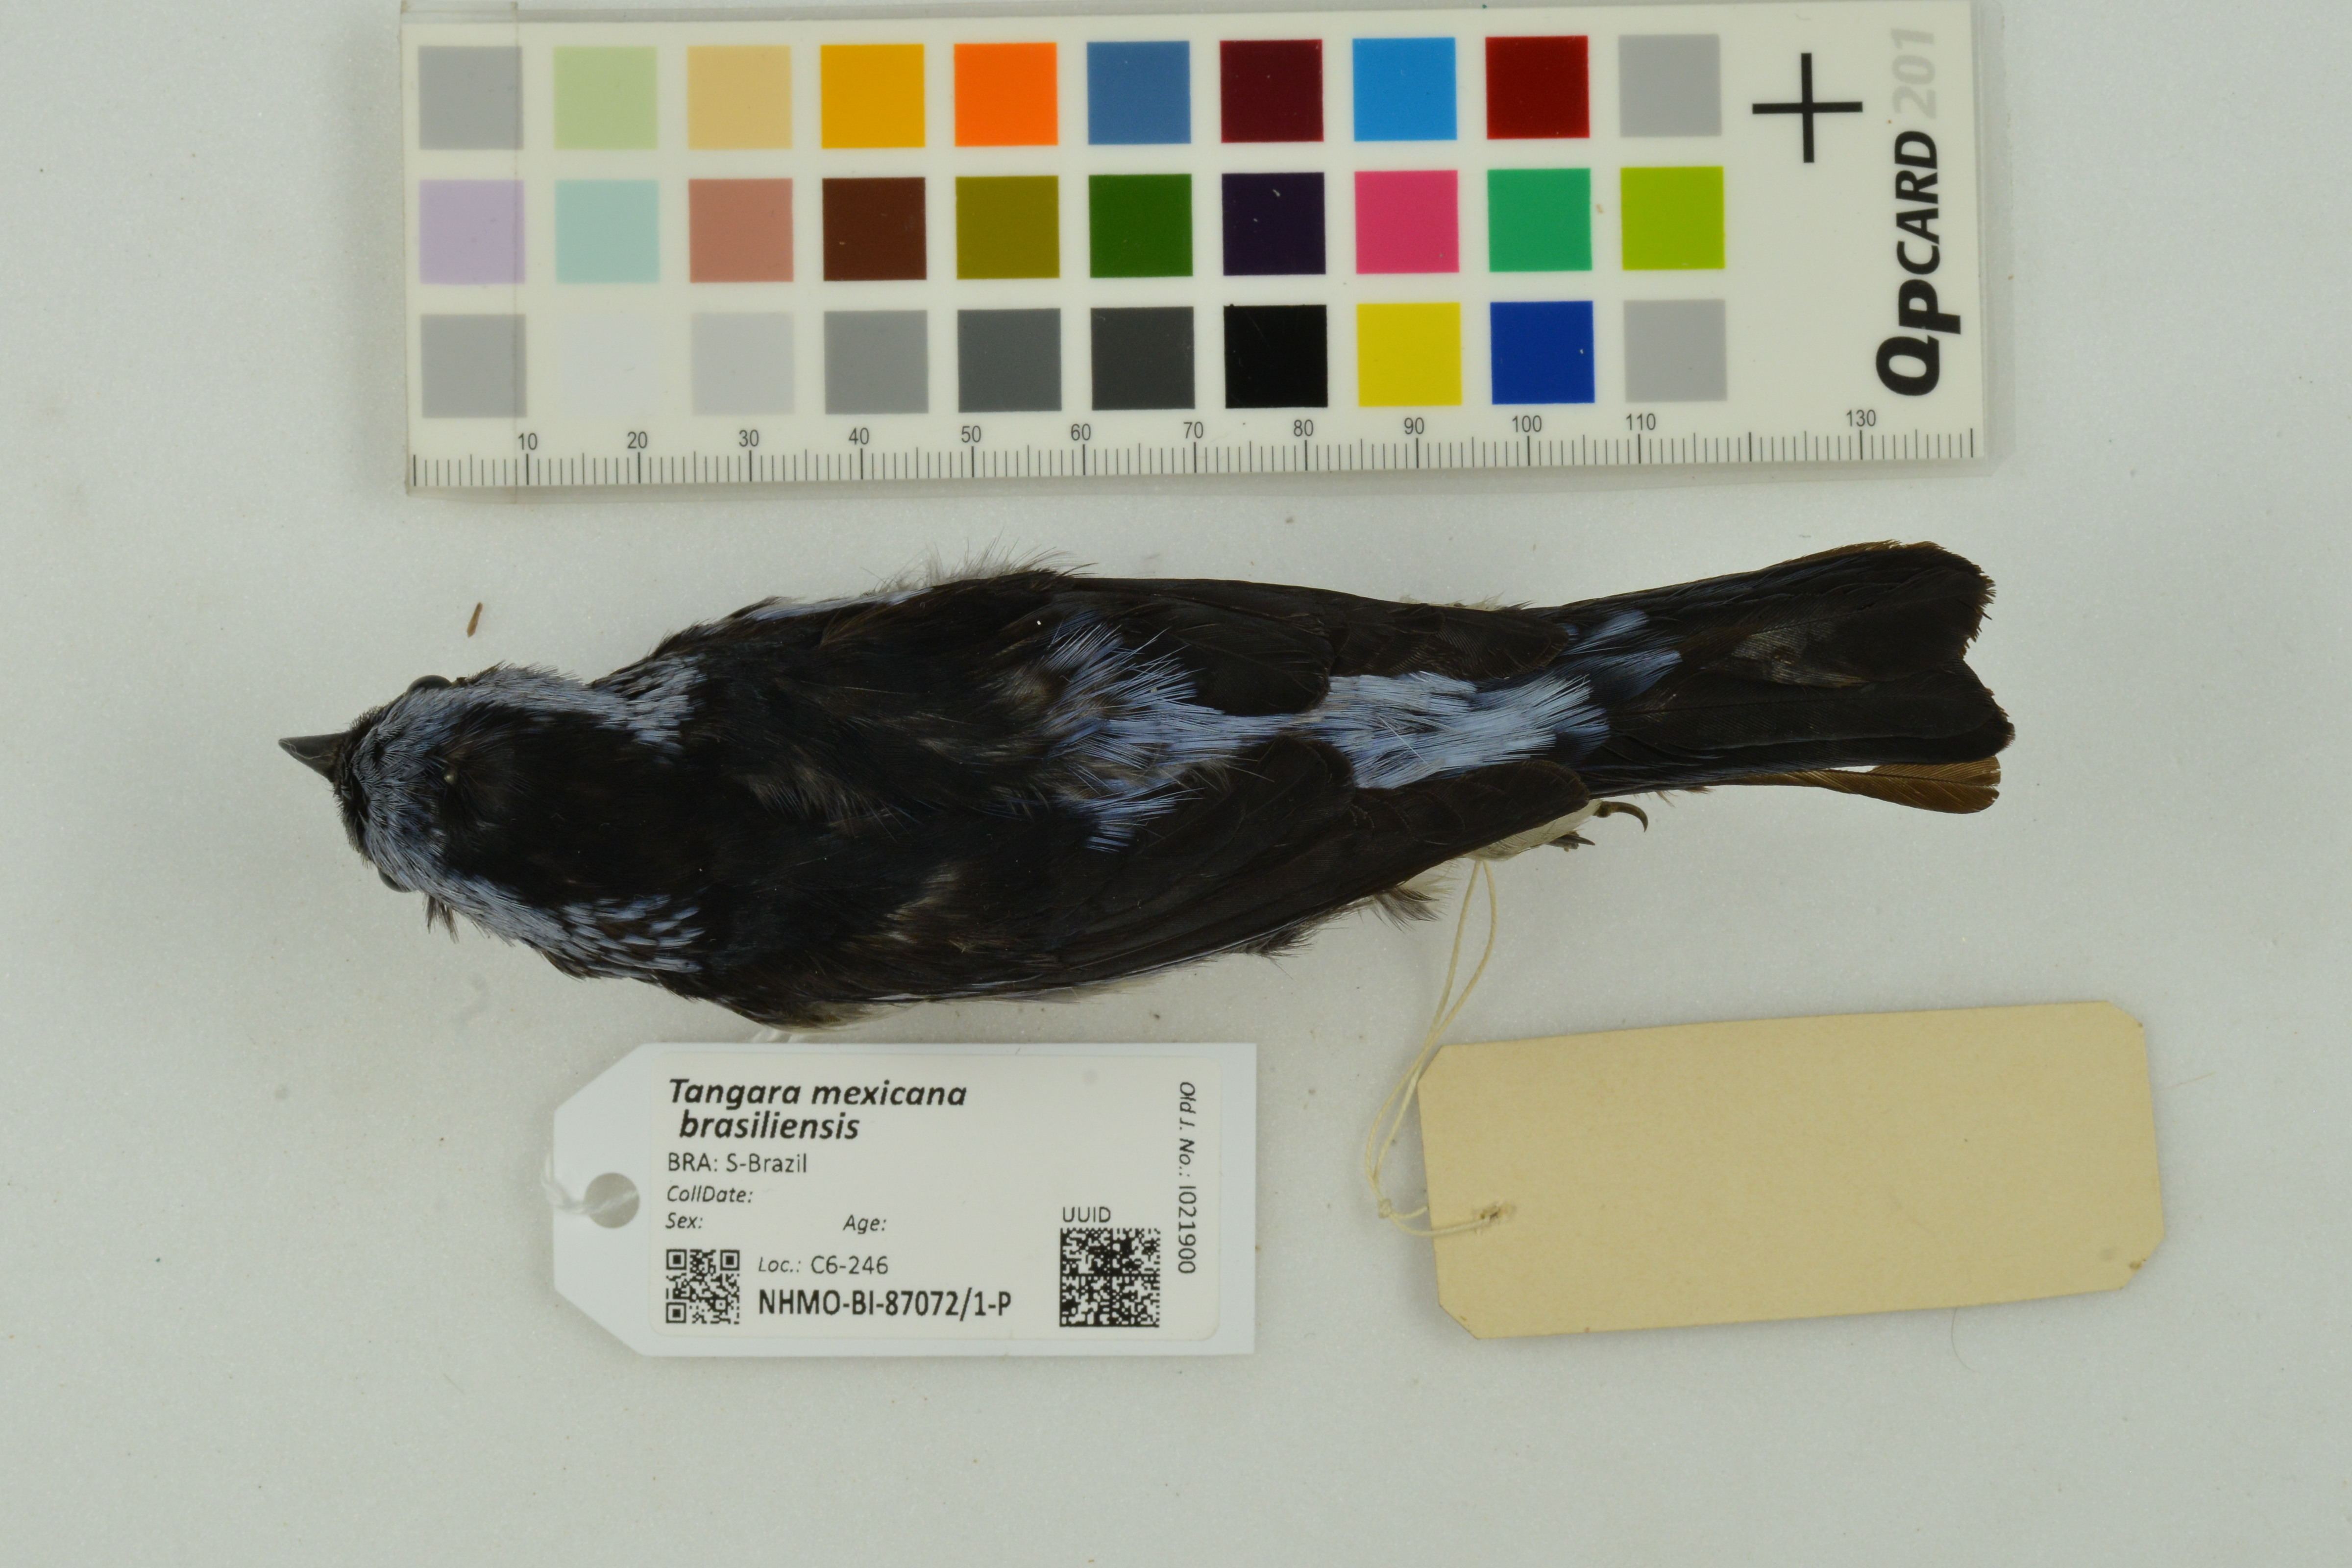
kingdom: Animalia
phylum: Chordata
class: Aves
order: Passeriformes
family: Thraupidae
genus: Tangara
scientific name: Tangara mexicana
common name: Turquoise tanager
